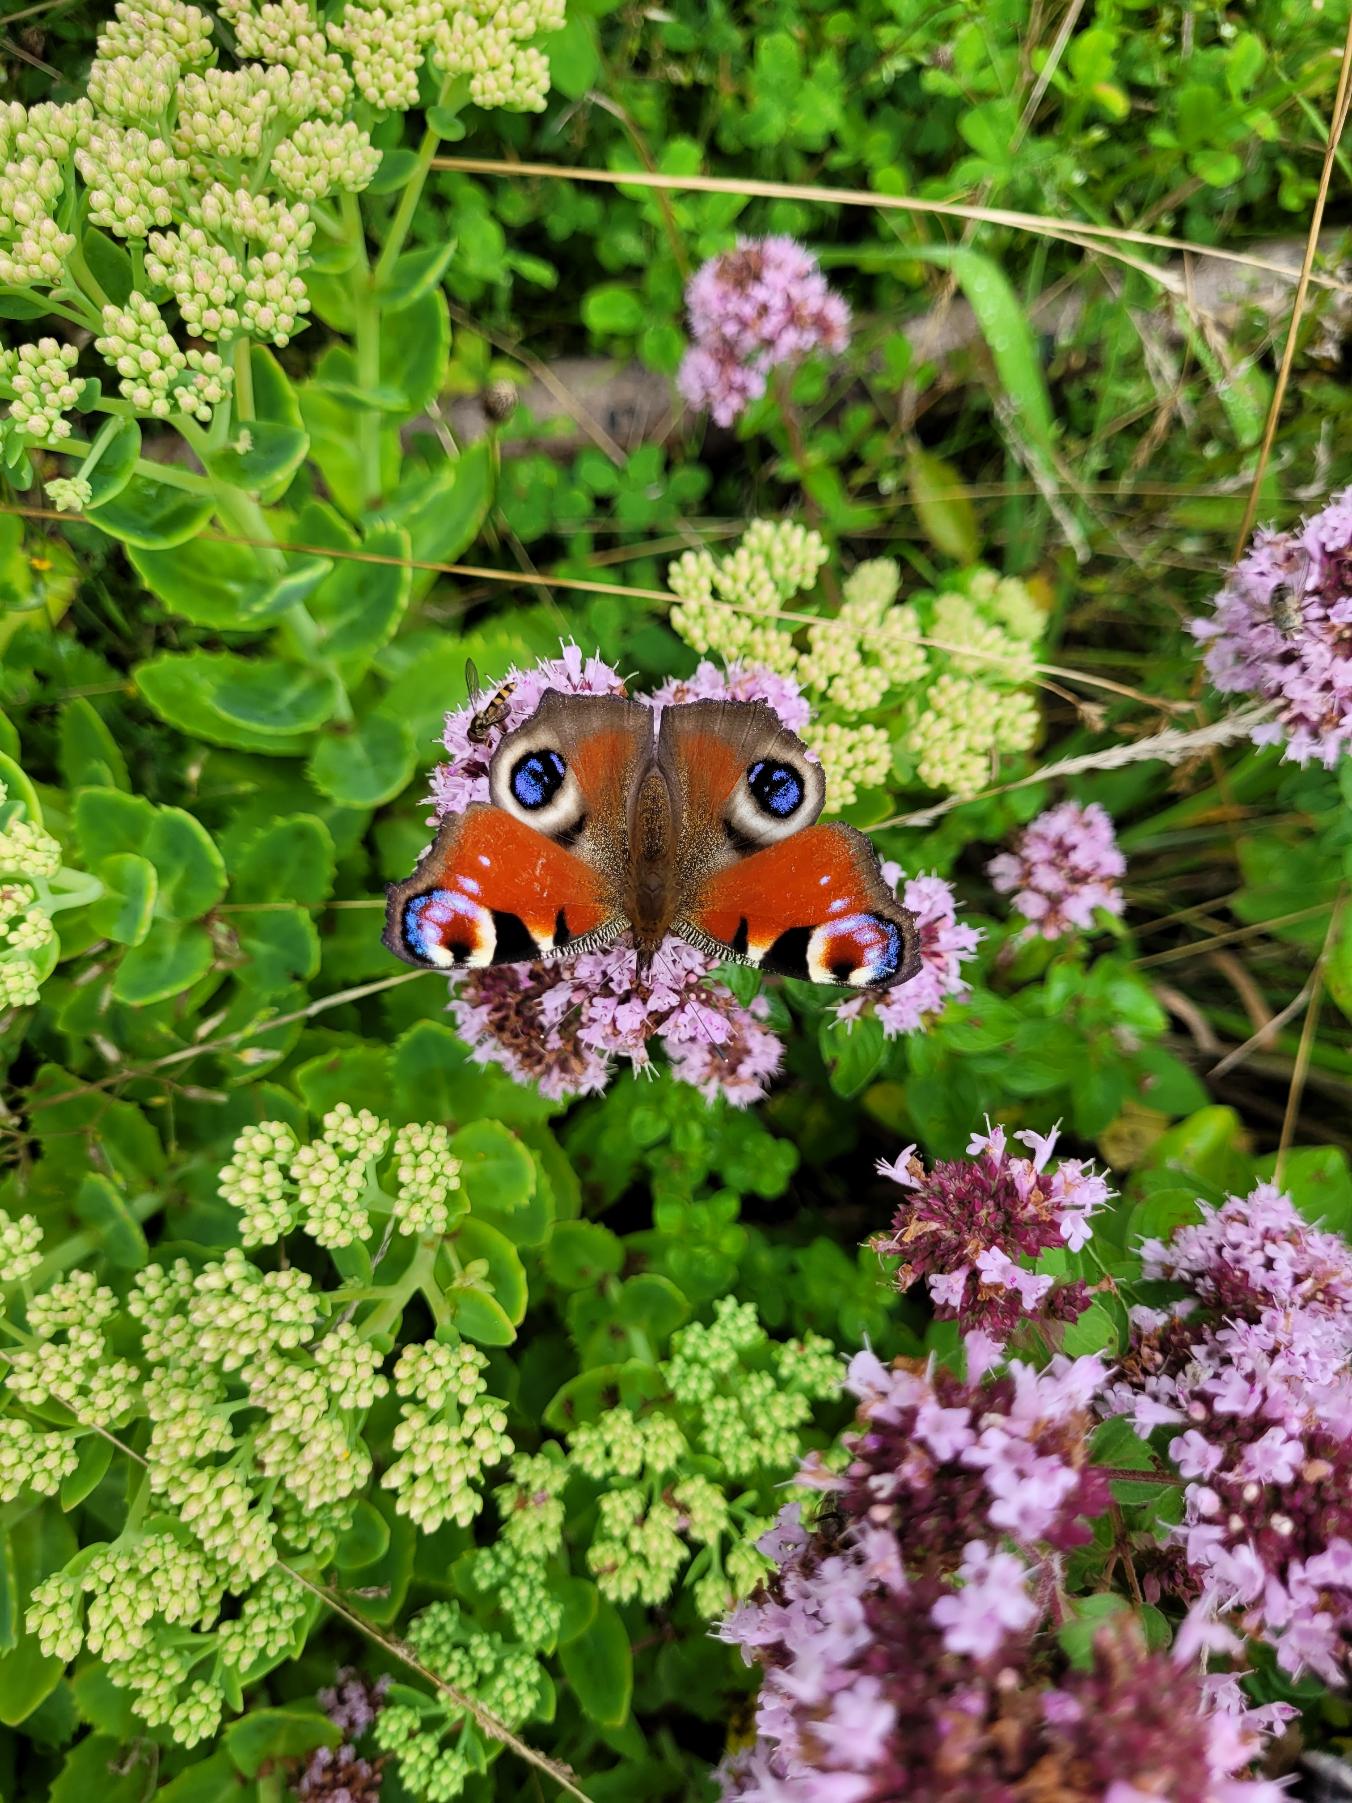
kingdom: Animalia
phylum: Arthropoda
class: Insecta
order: Lepidoptera
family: Nymphalidae
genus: Aglais
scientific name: Aglais io
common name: Dagpåfugleøje
